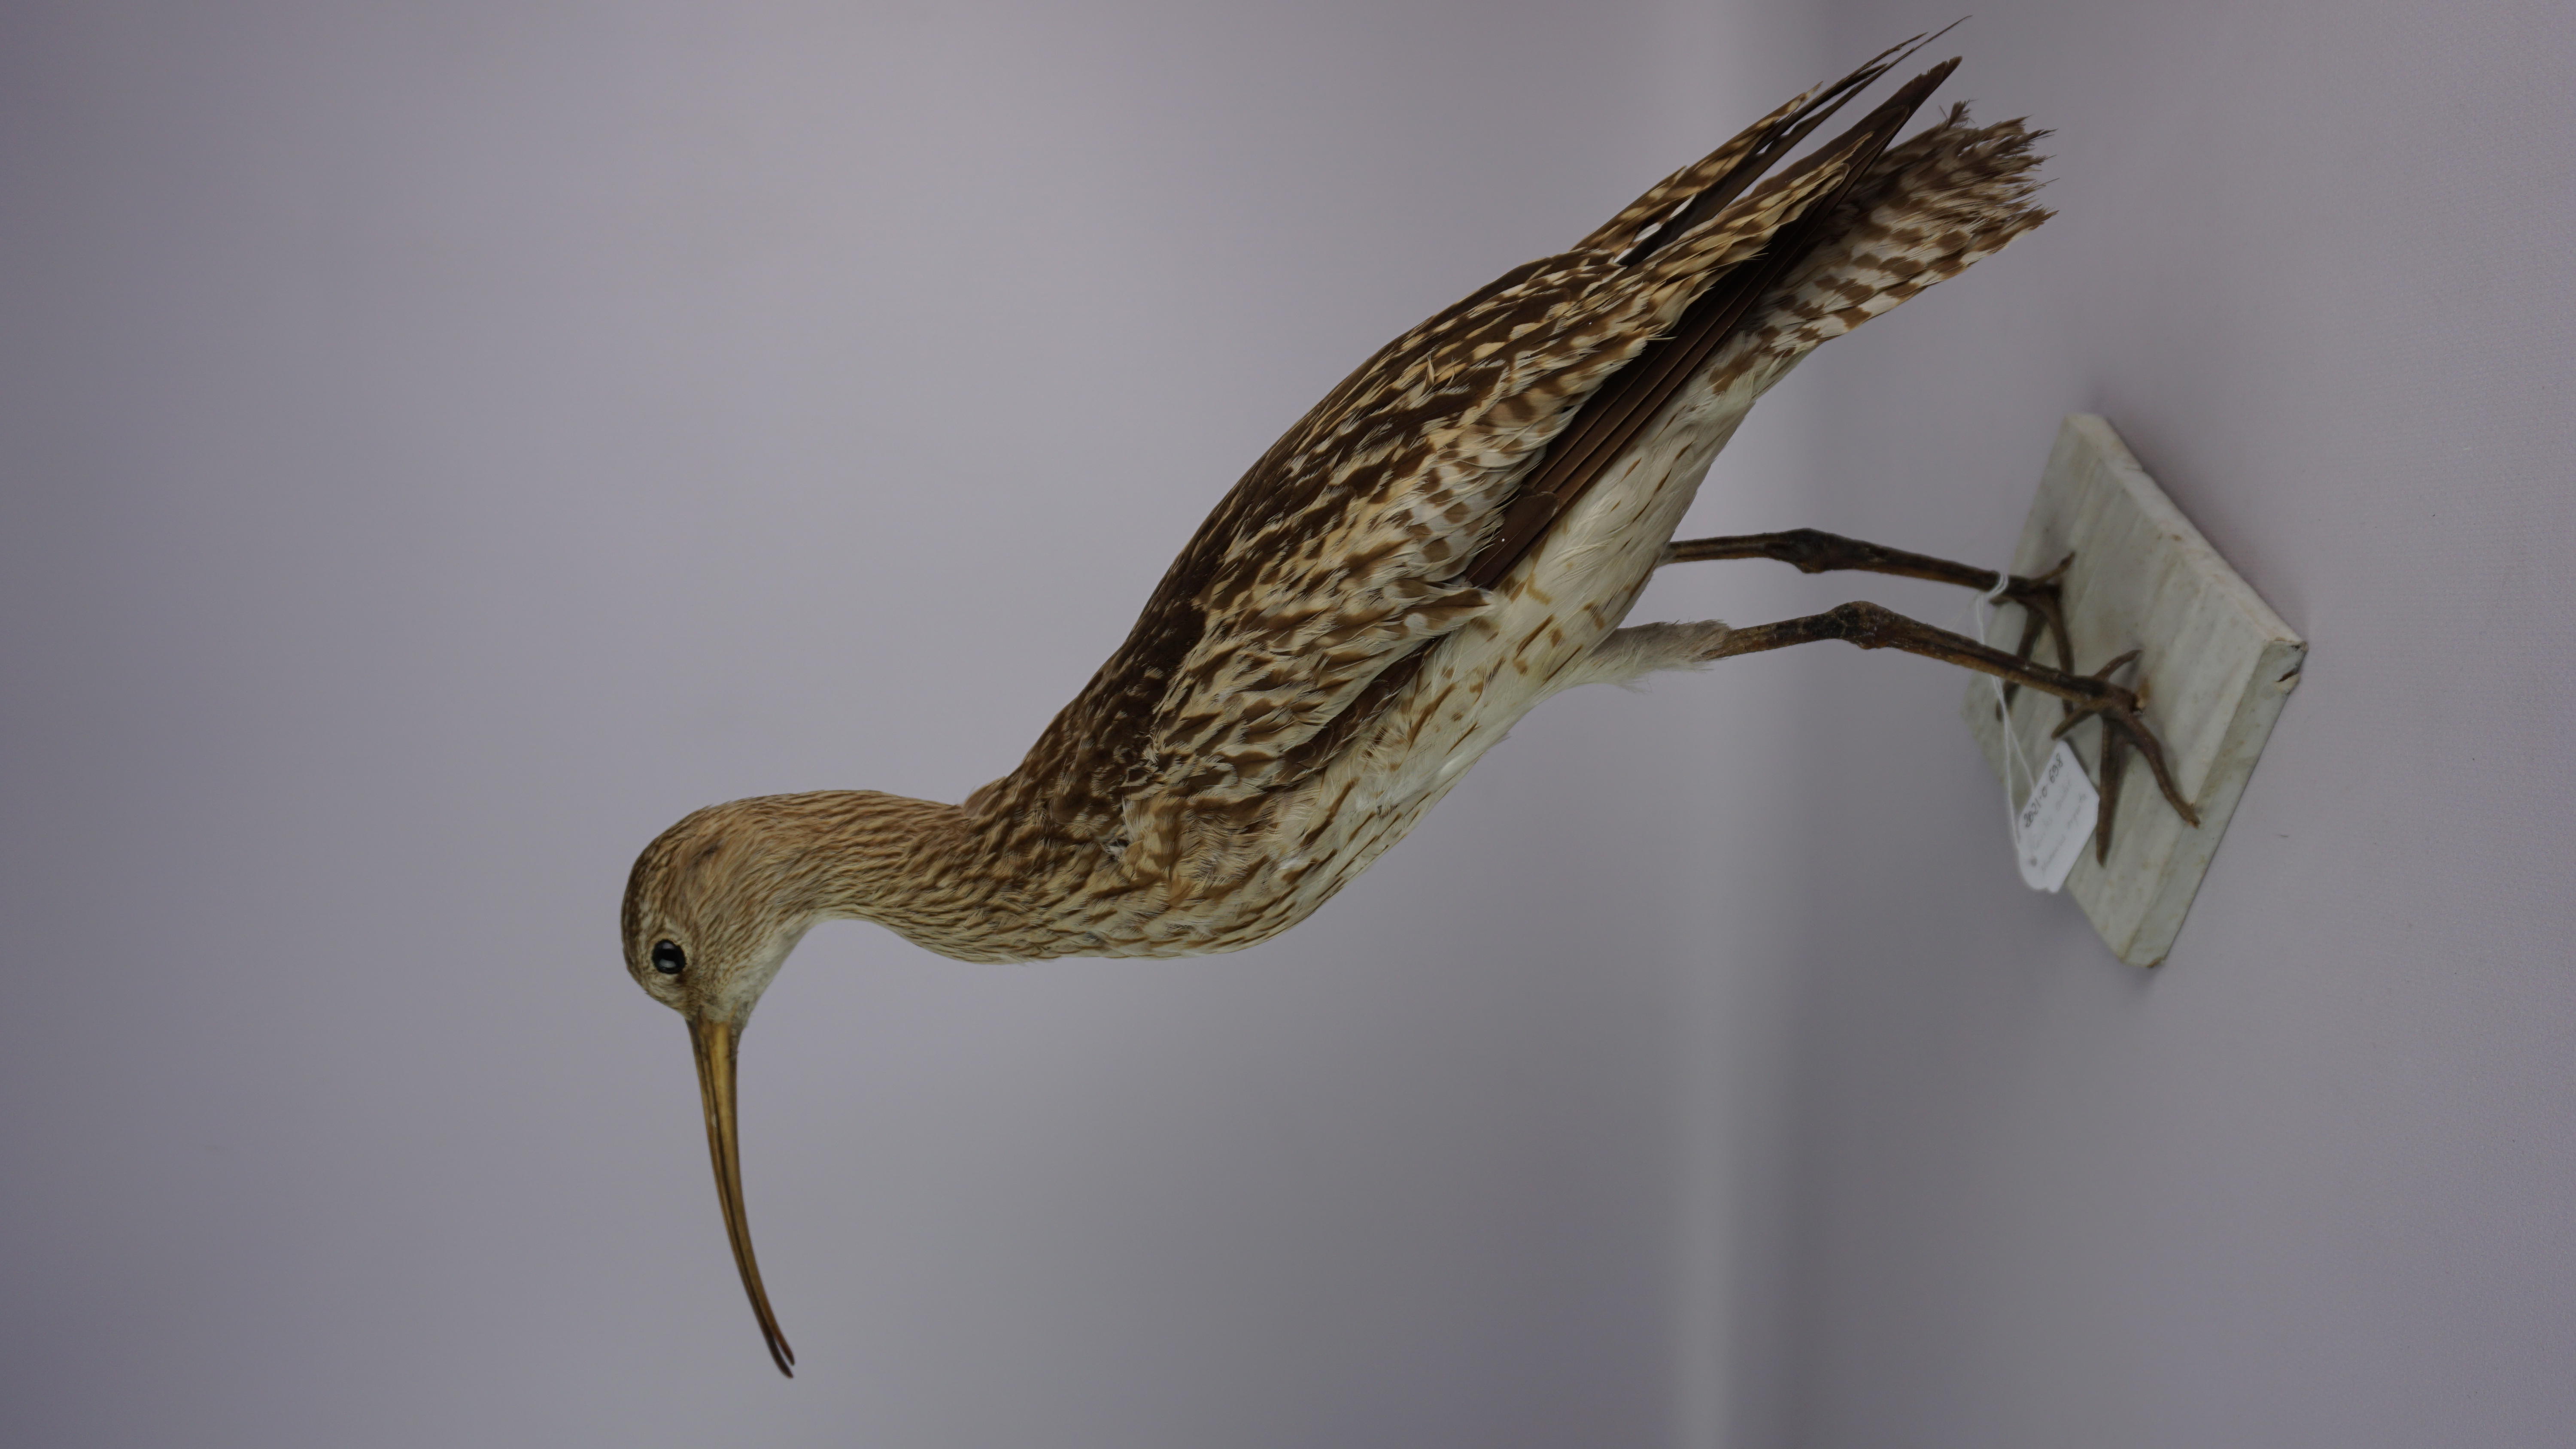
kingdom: Animalia
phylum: Chordata
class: Aves
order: Charadriiformes
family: Scolopacidae
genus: Numenius
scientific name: Numenius arquata
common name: Eurasian curlew
